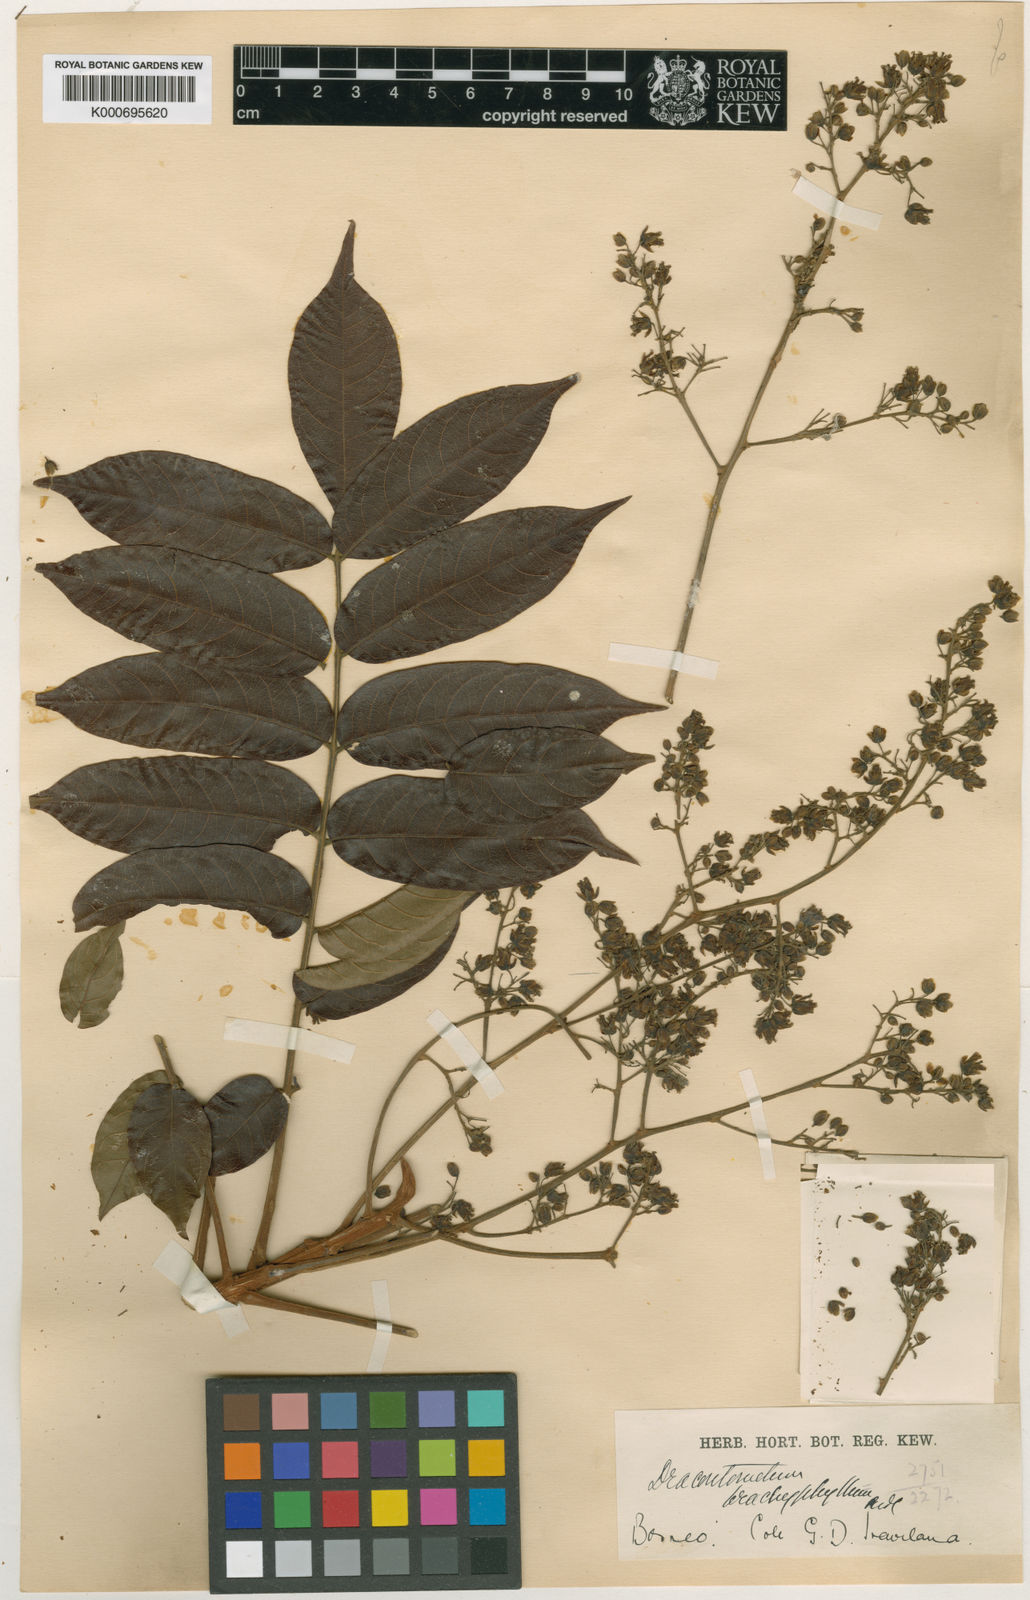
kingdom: Plantae
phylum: Tracheophyta
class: Magnoliopsida
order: Sapindales
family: Anacardiaceae
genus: Dracontomelon
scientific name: Dracontomelon dao
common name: Argus pheasant-tree
